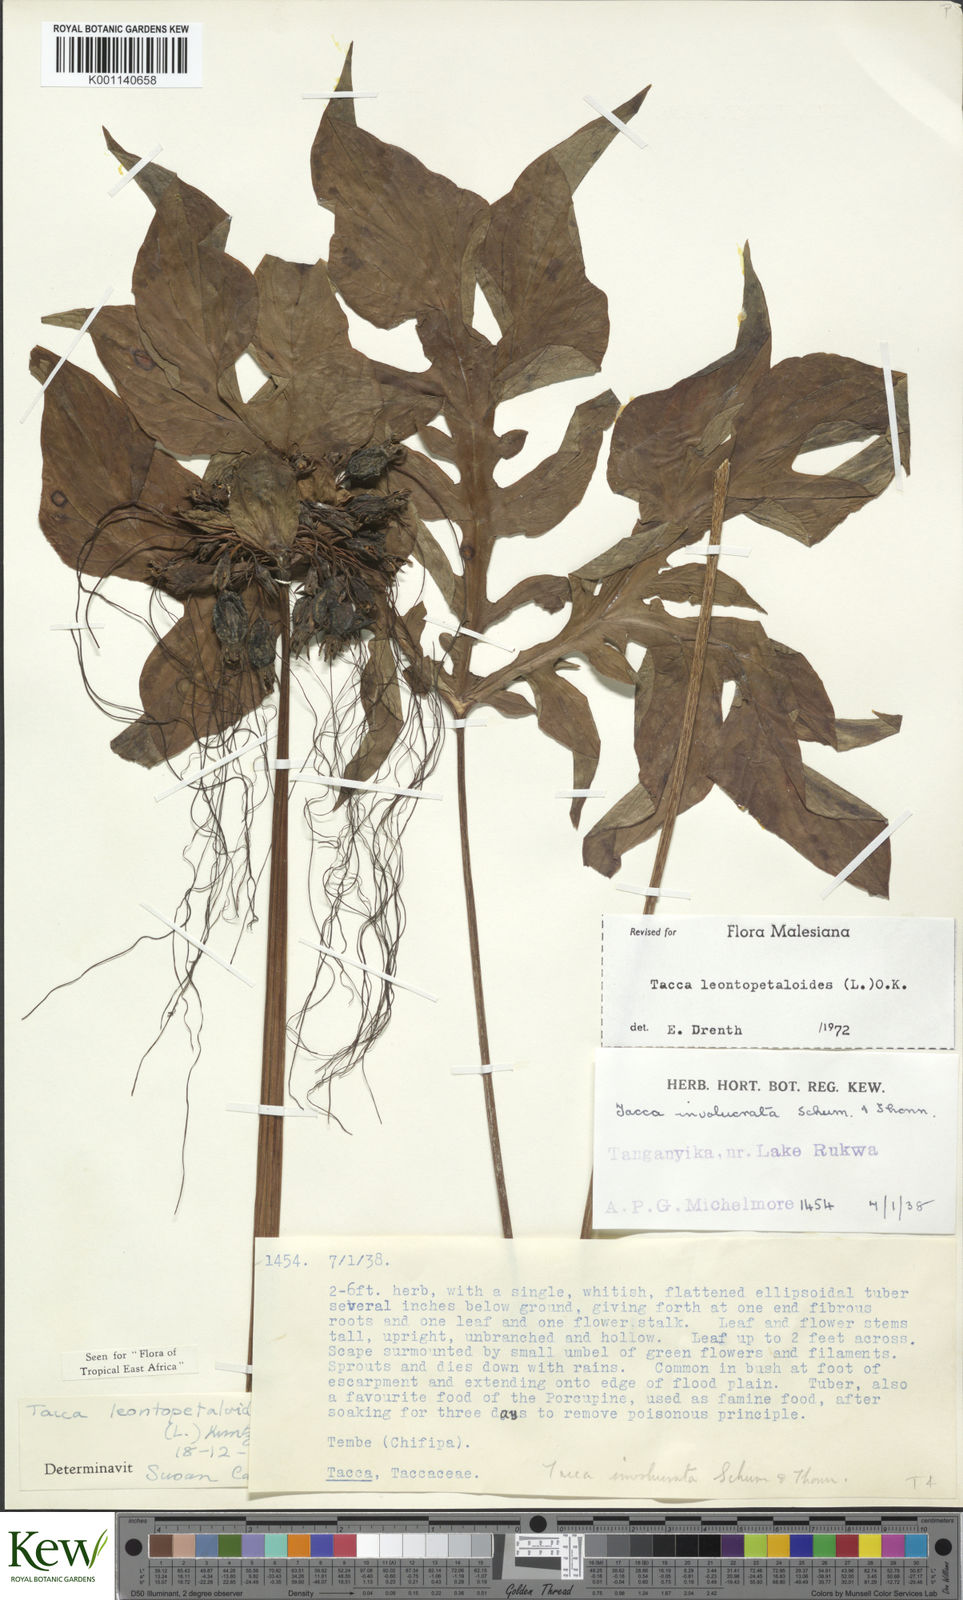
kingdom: Plantae
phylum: Tracheophyta
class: Liliopsida
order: Dioscoreales
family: Dioscoreaceae
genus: Tacca
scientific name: Tacca leontopetaloides
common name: Arrowroot
